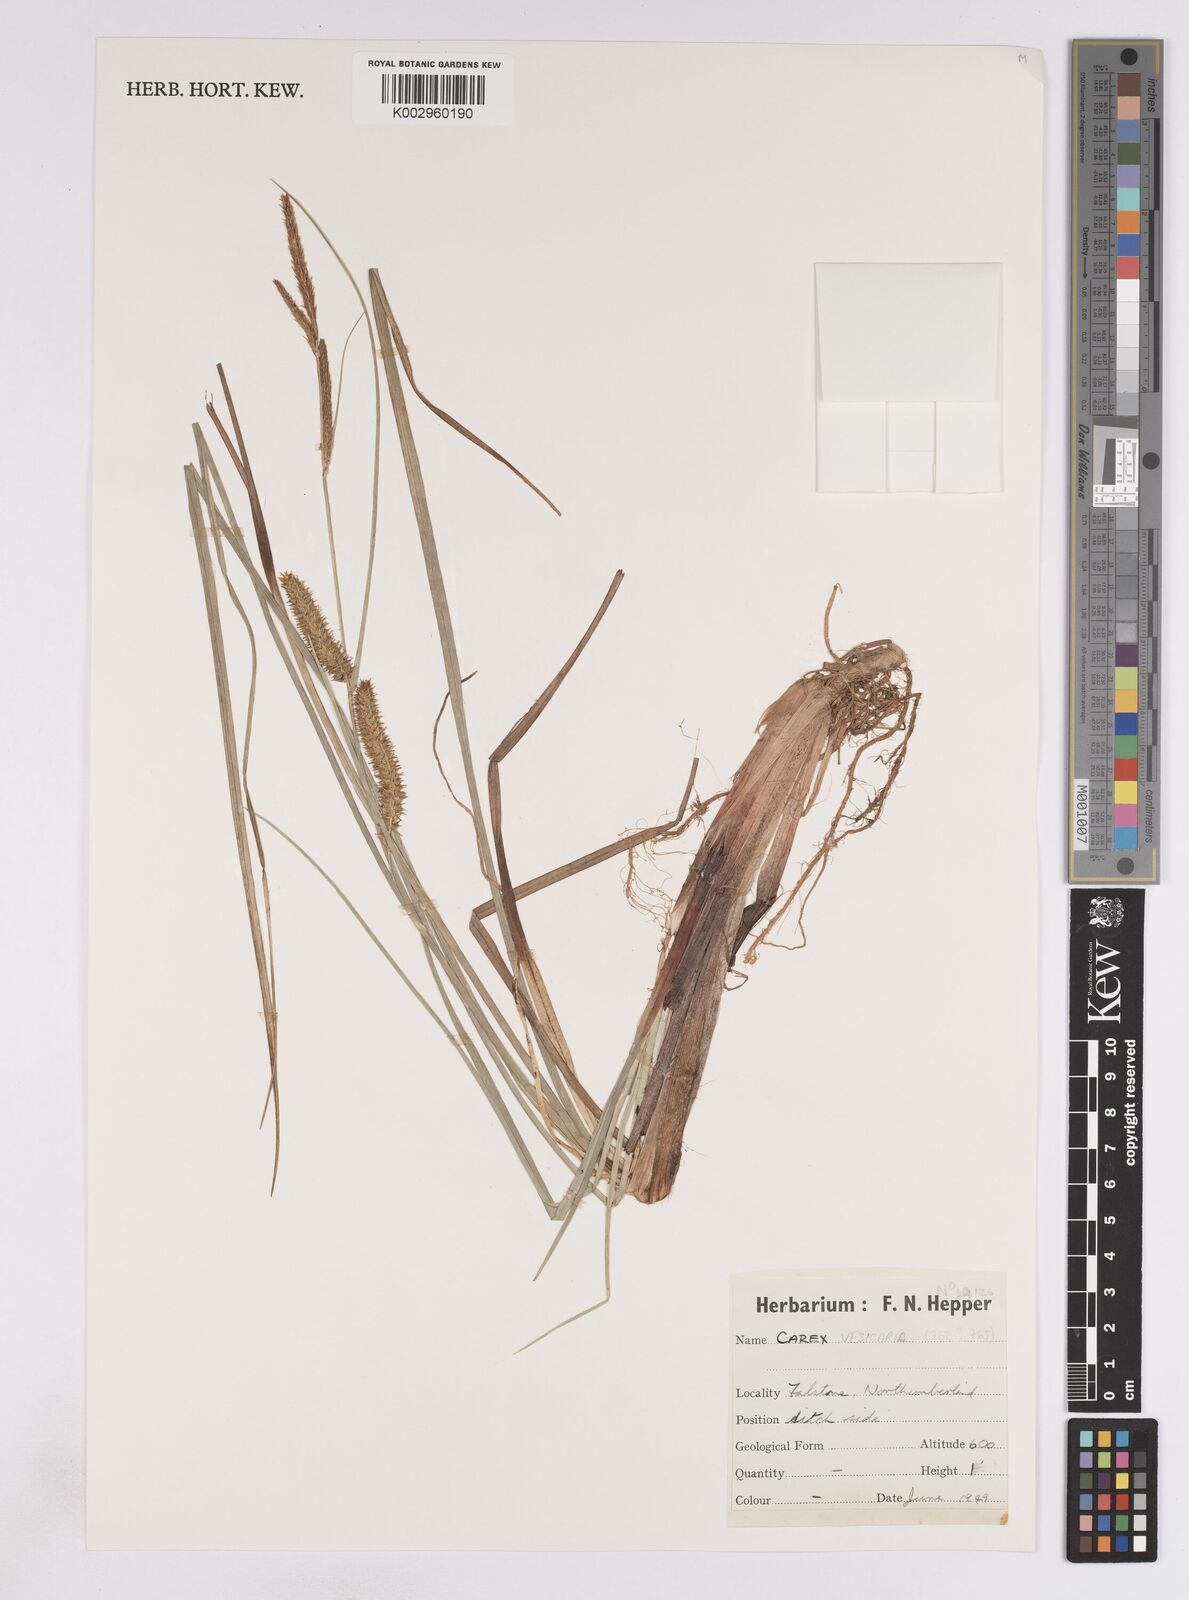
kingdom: Plantae
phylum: Tracheophyta
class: Liliopsida
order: Poales
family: Cyperaceae
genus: Carex
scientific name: Carex vesicaria
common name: Bladder-sedge
